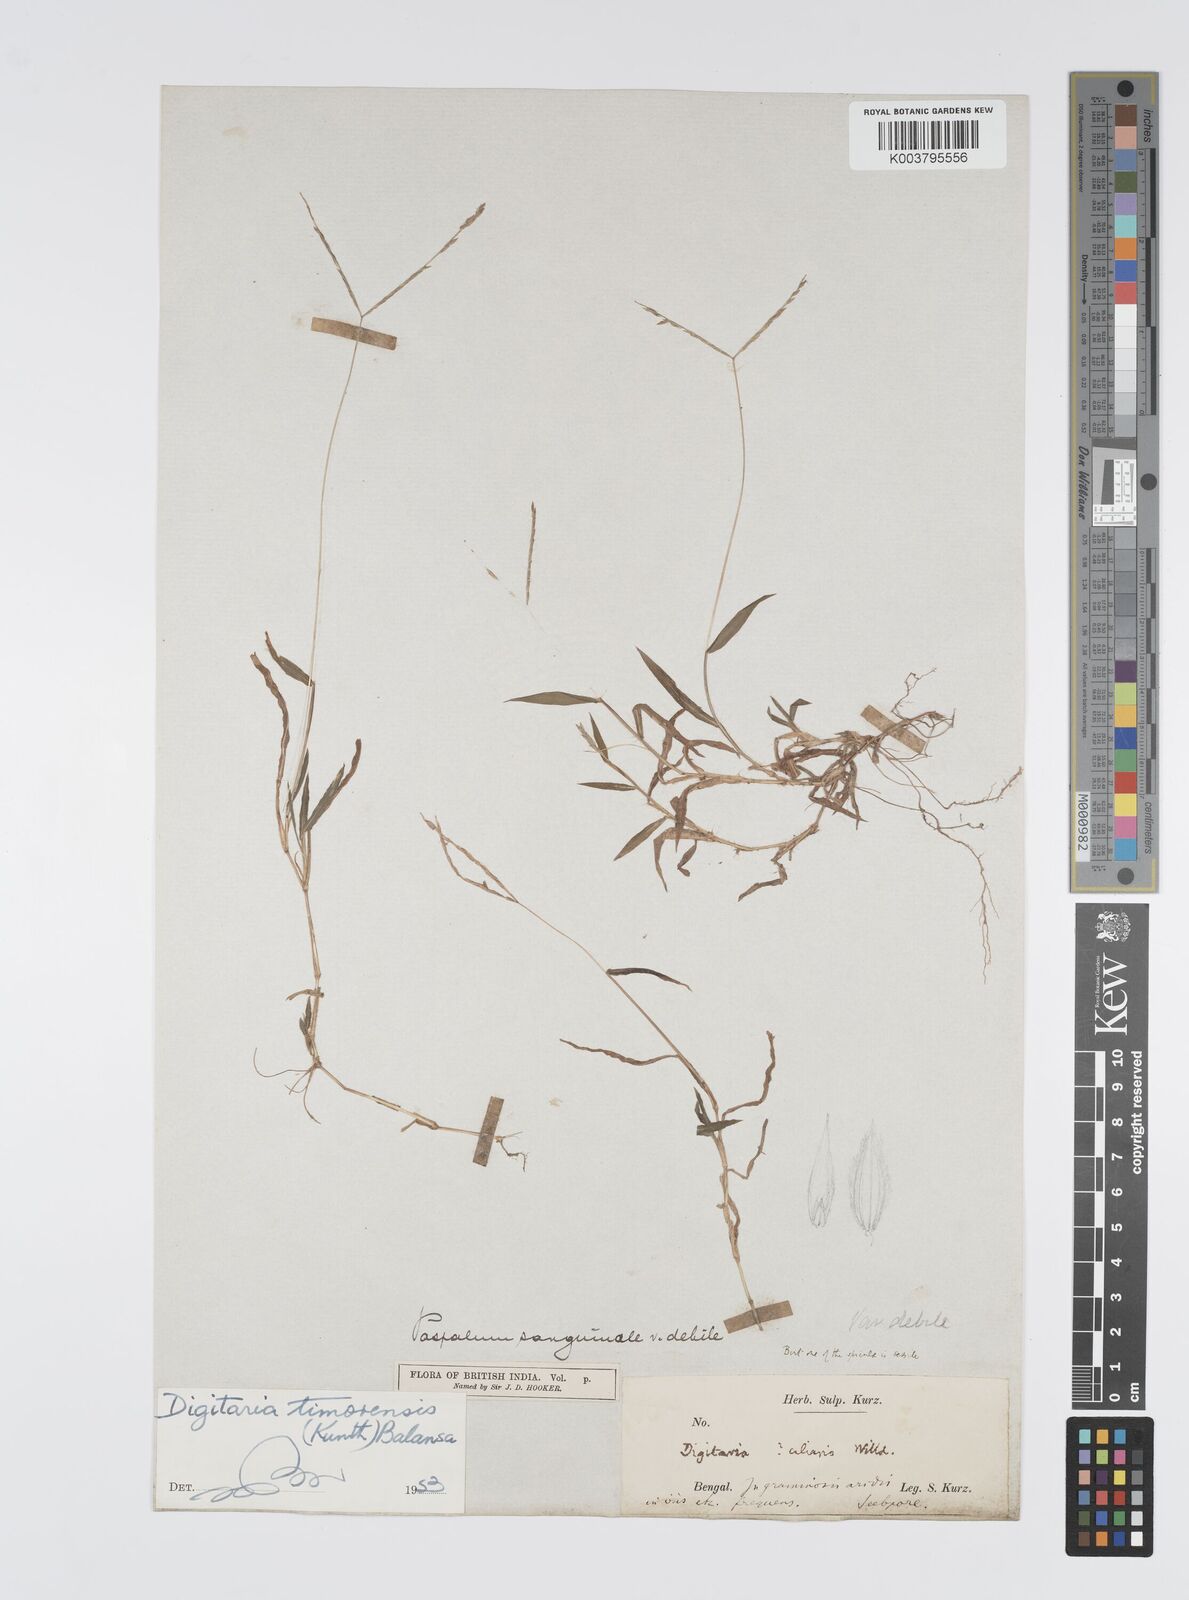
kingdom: Plantae
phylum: Tracheophyta
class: Liliopsida
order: Poales
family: Poaceae
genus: Digitaria
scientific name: Digitaria radicosa
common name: Trailing crabgrass
